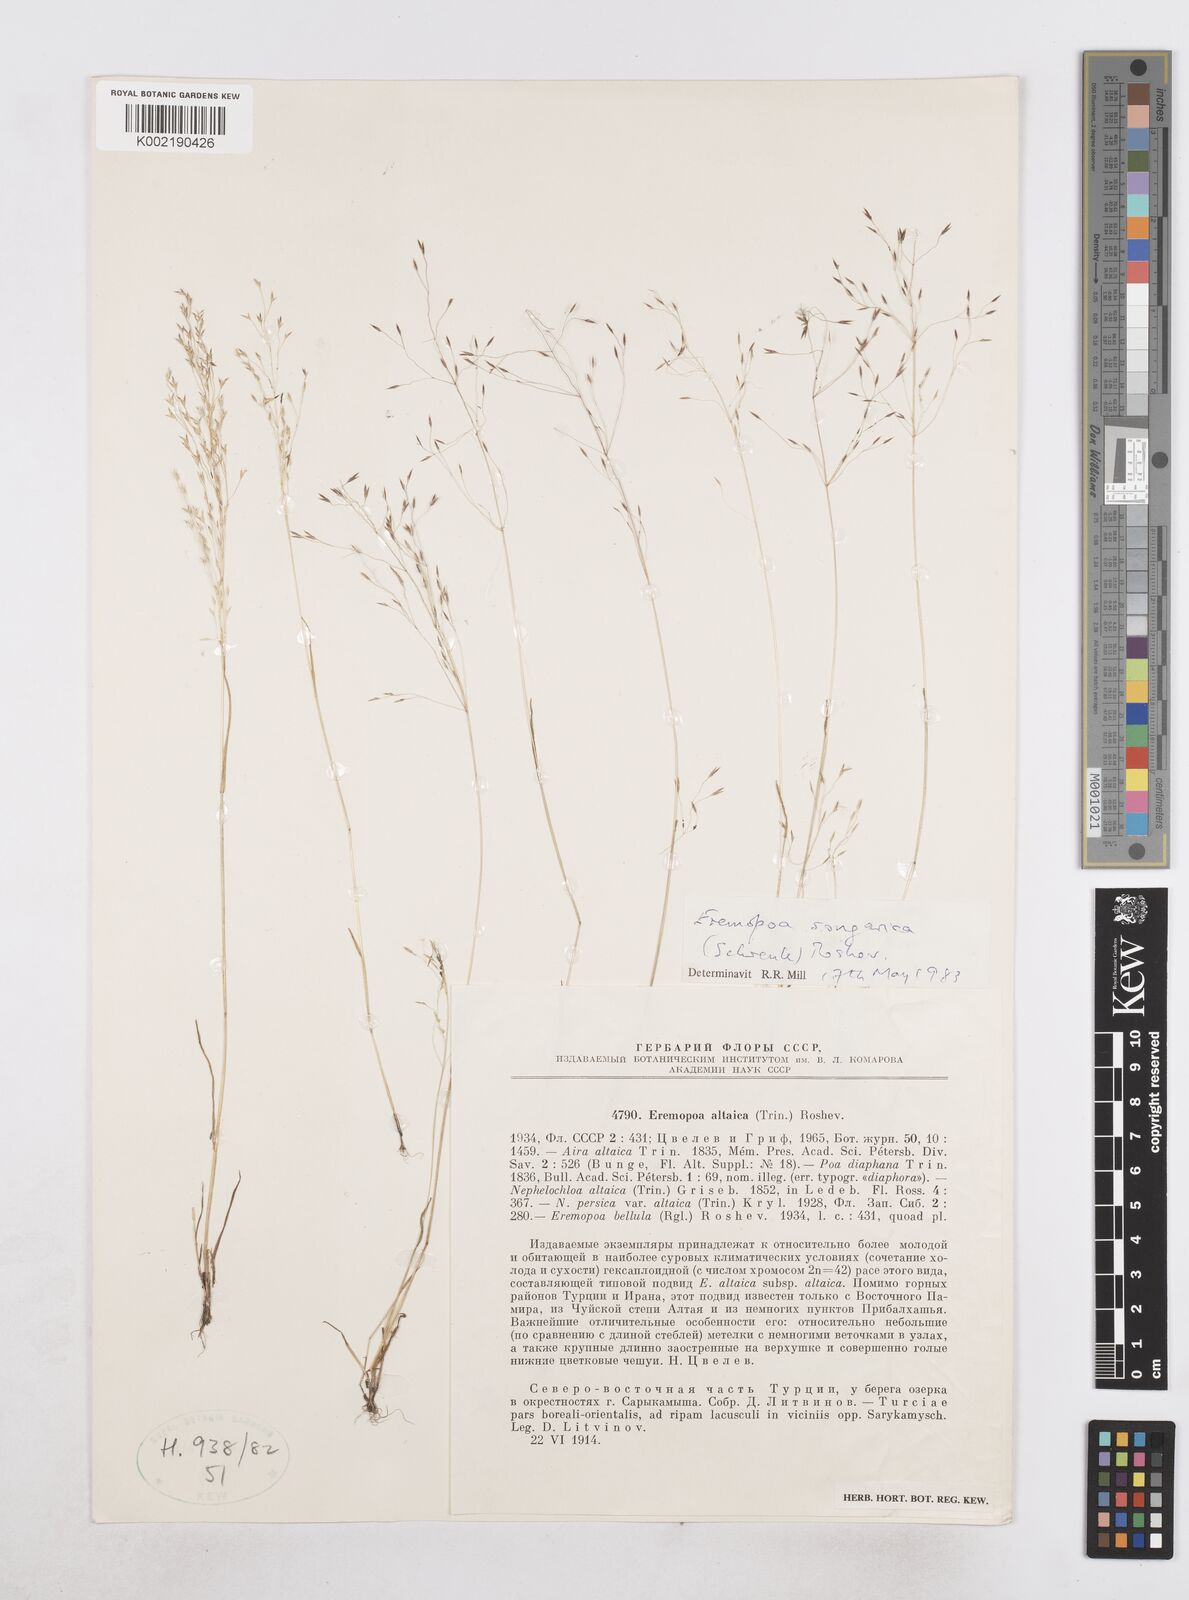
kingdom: Plantae
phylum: Tracheophyta
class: Liliopsida
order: Poales
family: Poaceae
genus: Poa
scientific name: Poa diaphora
